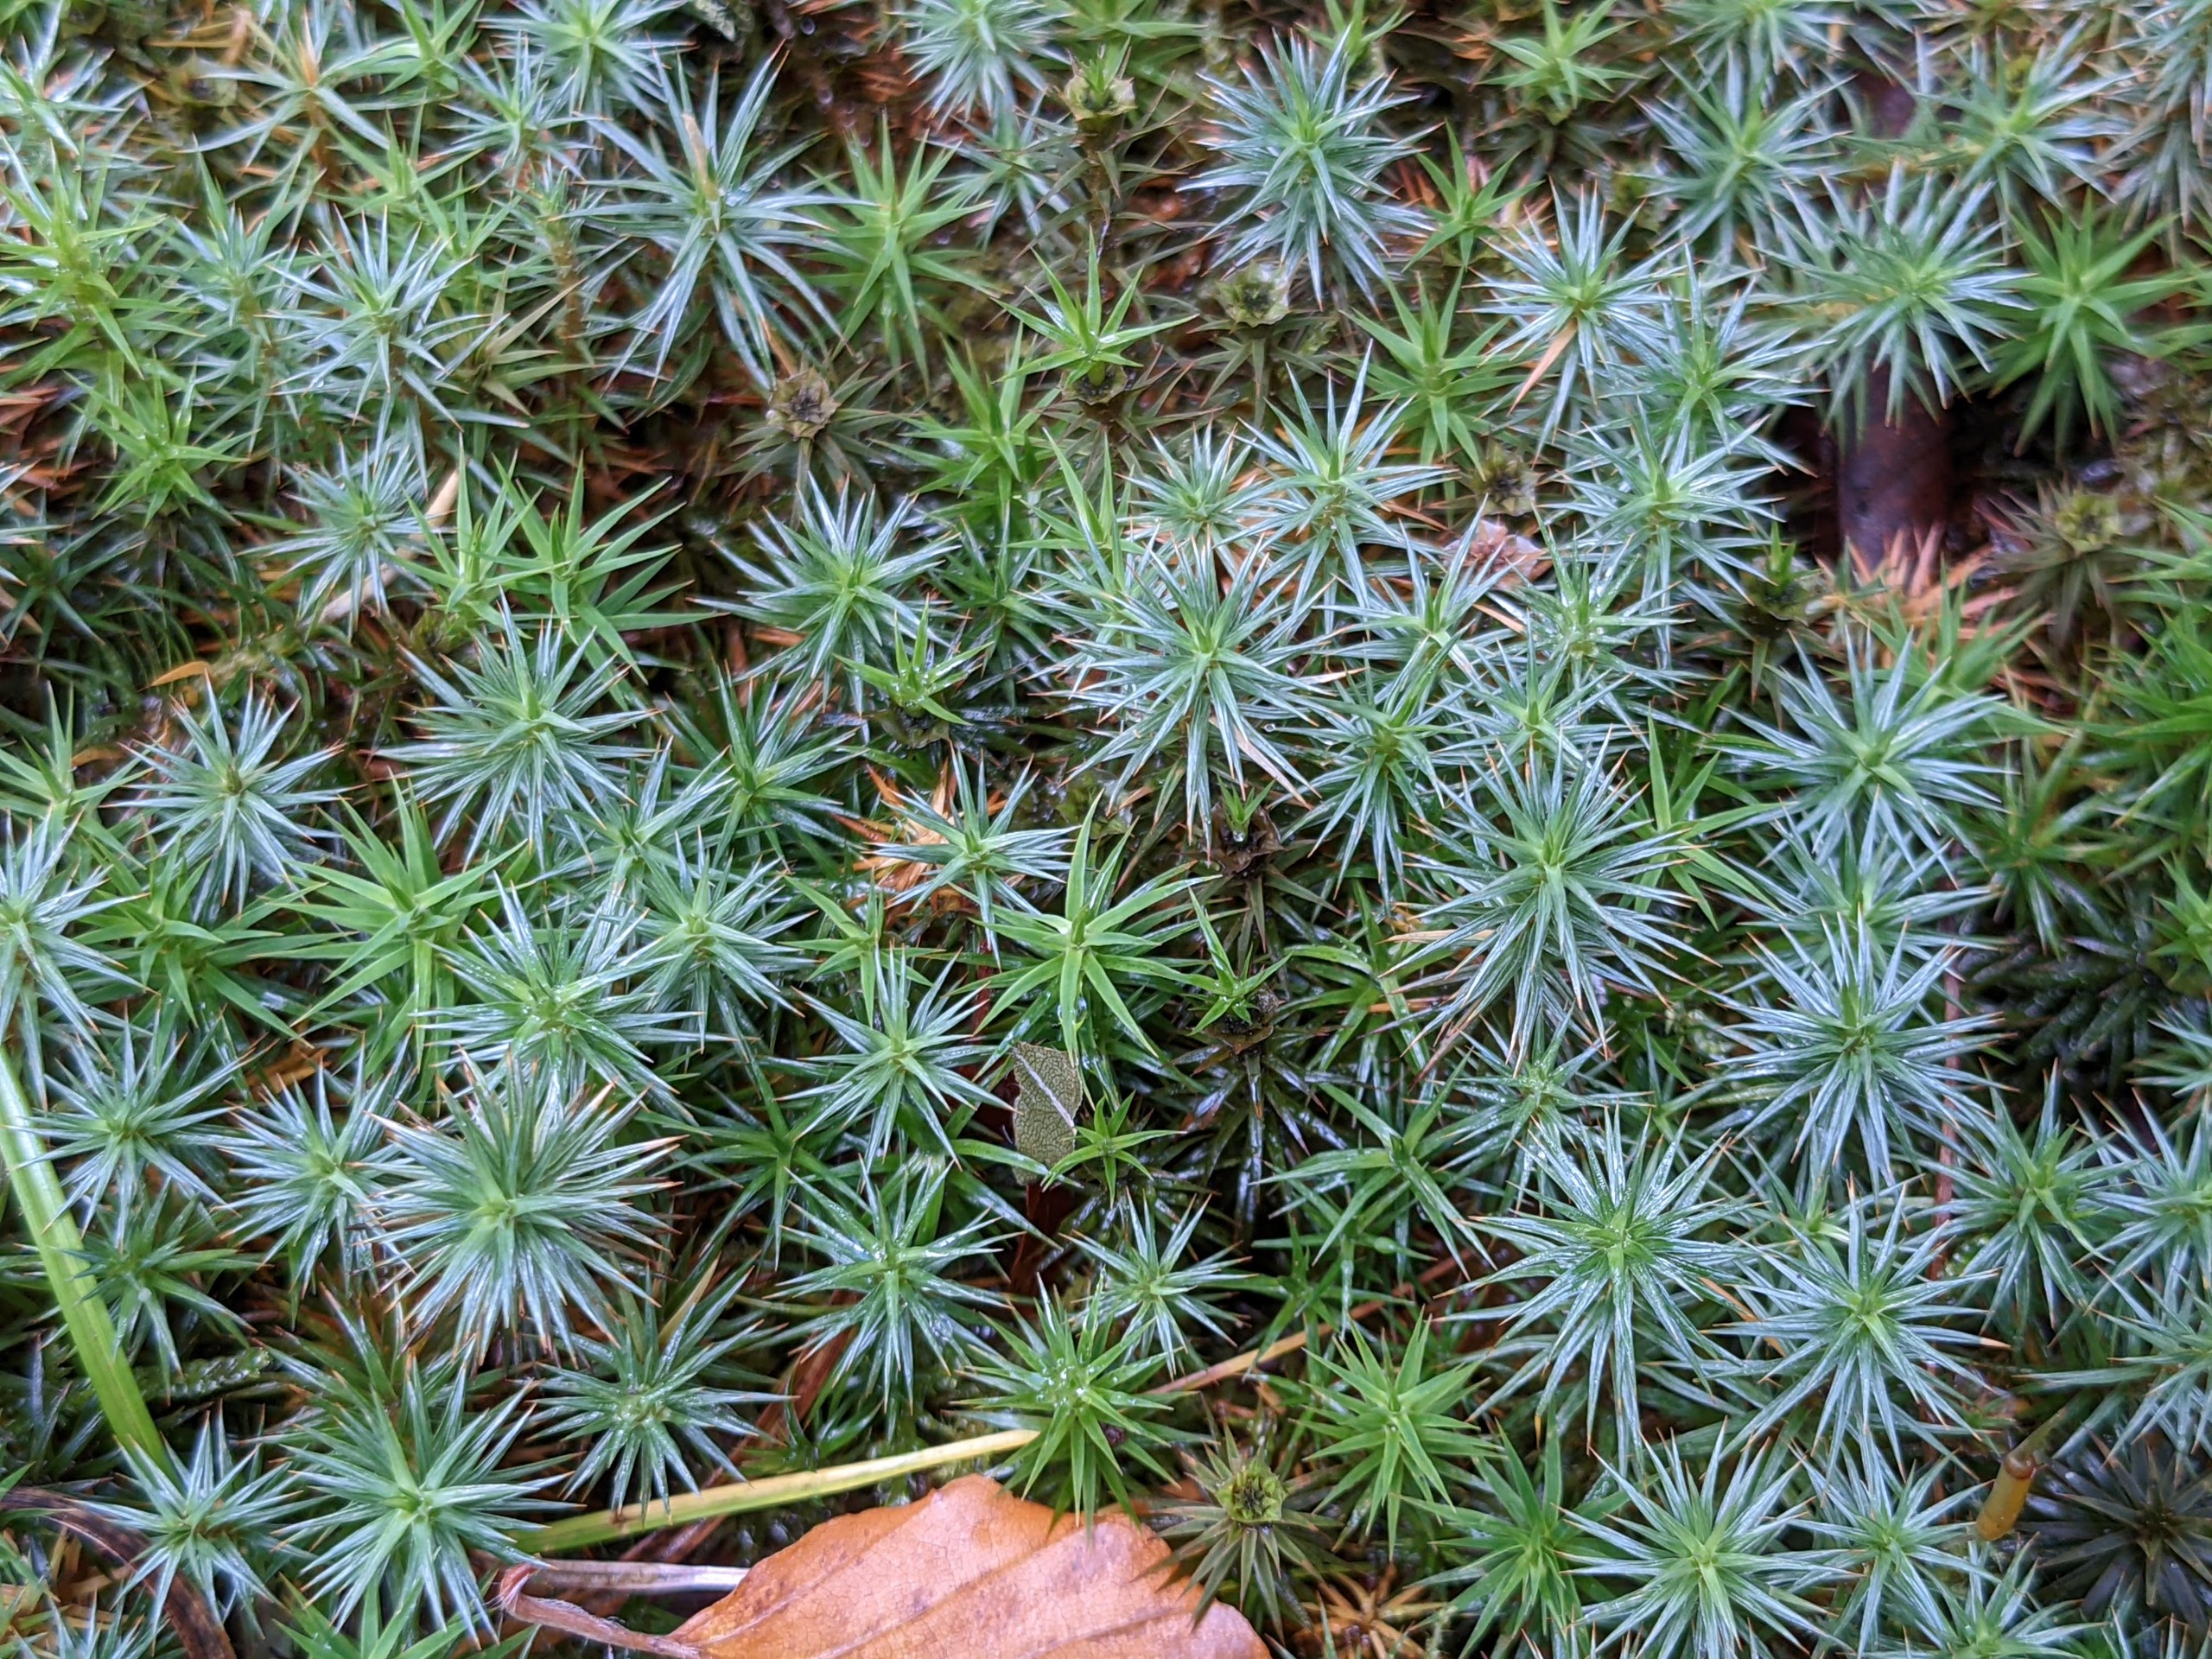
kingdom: Plantae
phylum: Bryophyta
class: Polytrichopsida
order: Polytrichales
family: Polytrichaceae
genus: Polytrichum
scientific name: Polytrichum juniperinum
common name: Ene-jomfruhår
